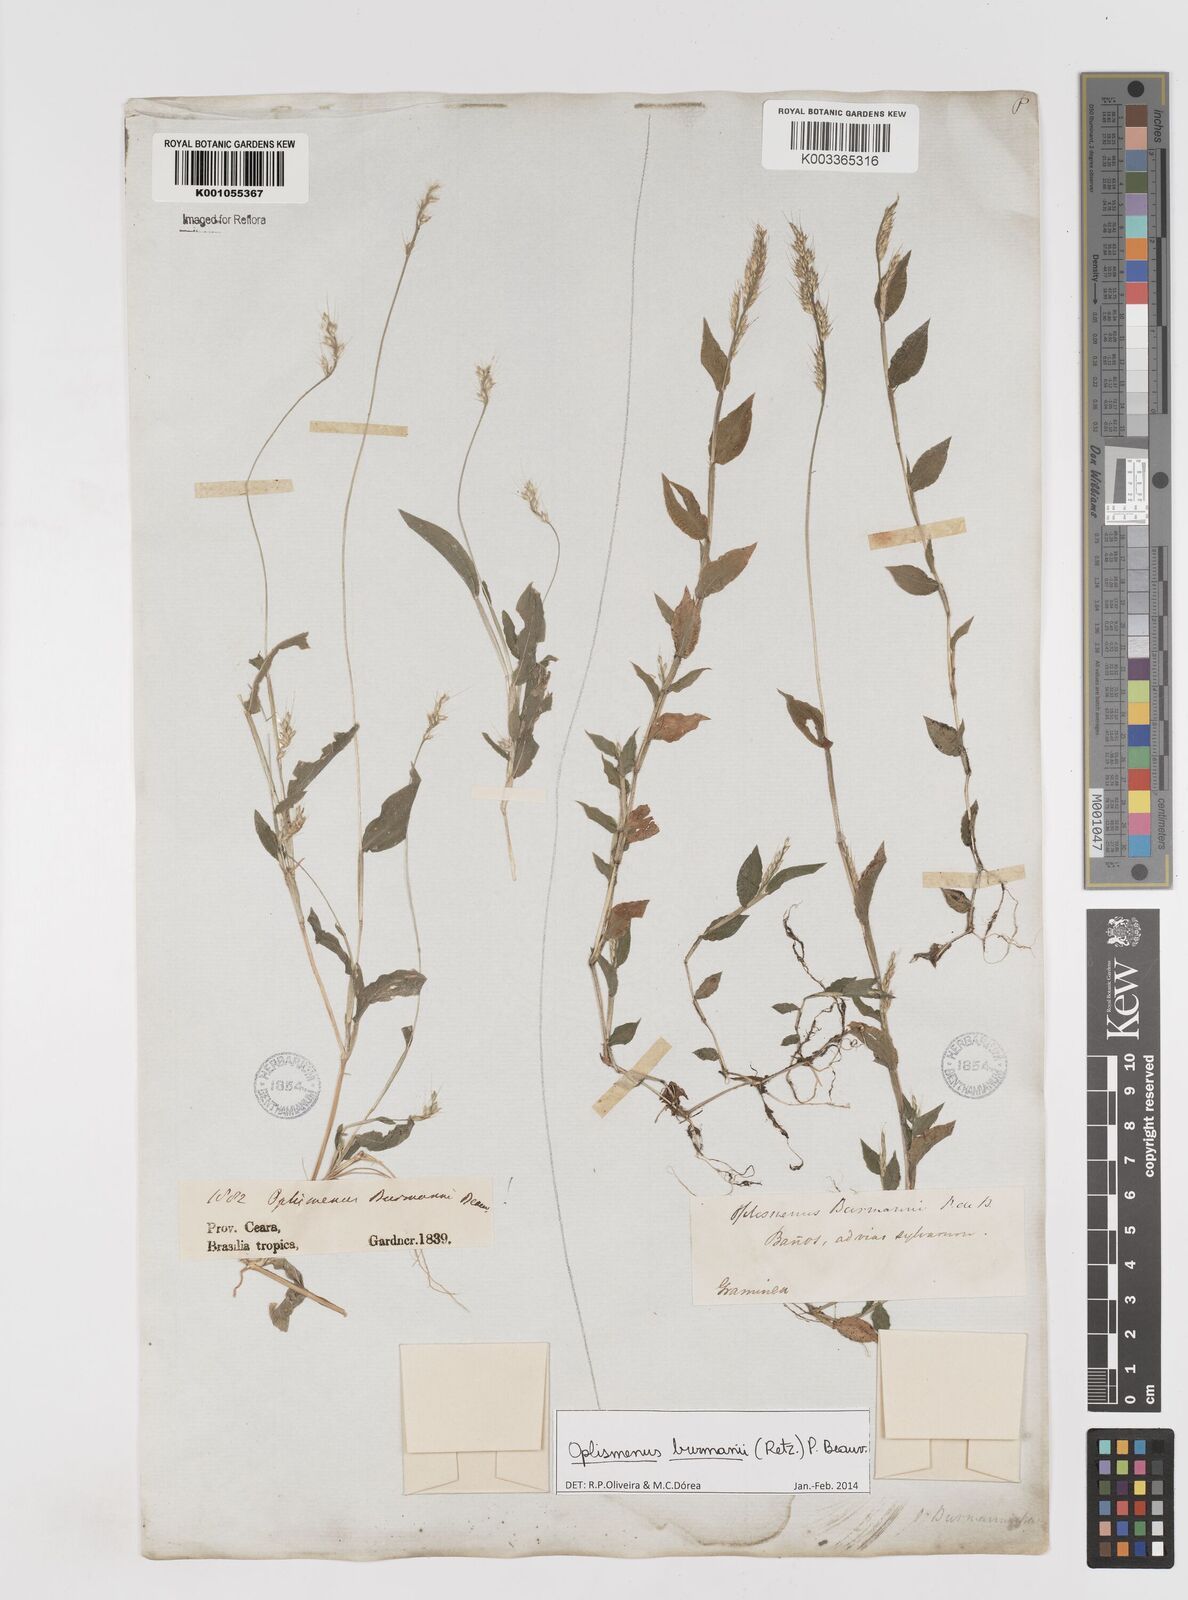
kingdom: Plantae
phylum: Tracheophyta
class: Liliopsida
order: Poales
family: Poaceae
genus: Oplismenus
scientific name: Oplismenus burmanni
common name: Burmann's basketgrass
